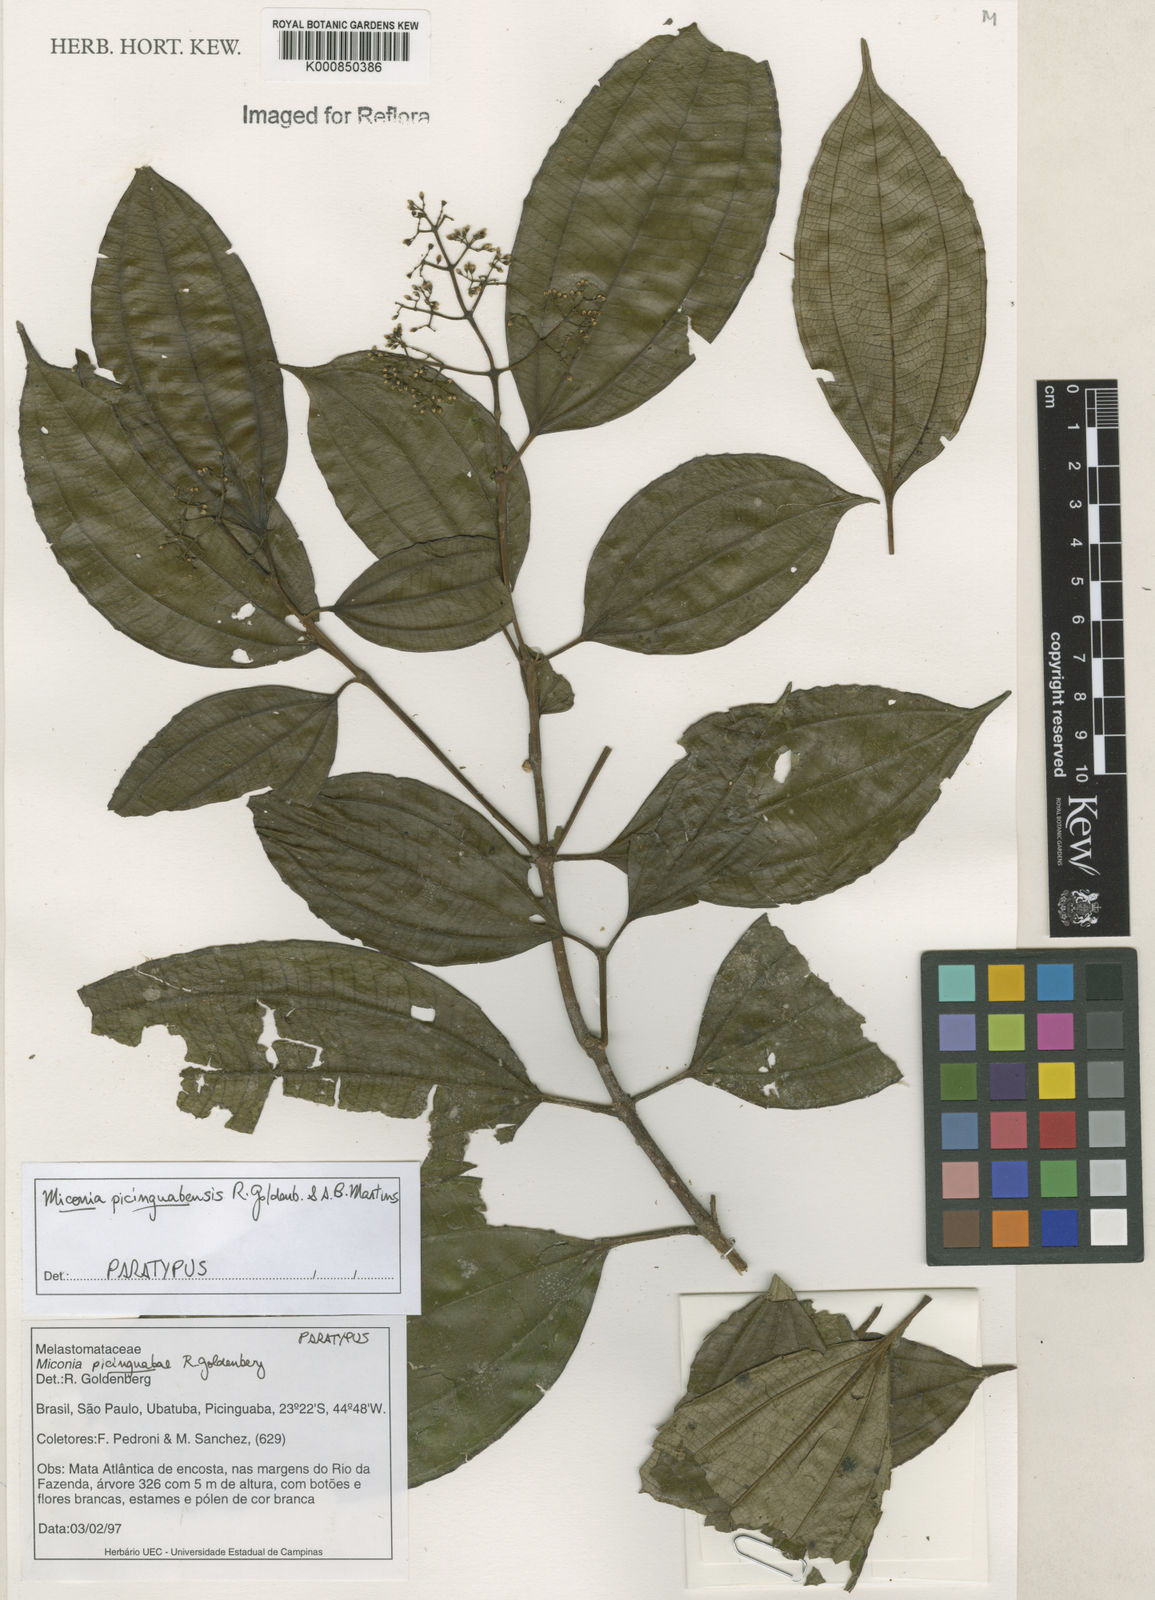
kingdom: Plantae
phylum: Tracheophyta
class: Magnoliopsida
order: Myrtales
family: Melastomataceae
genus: Miconia
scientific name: Miconia picinguabensis
